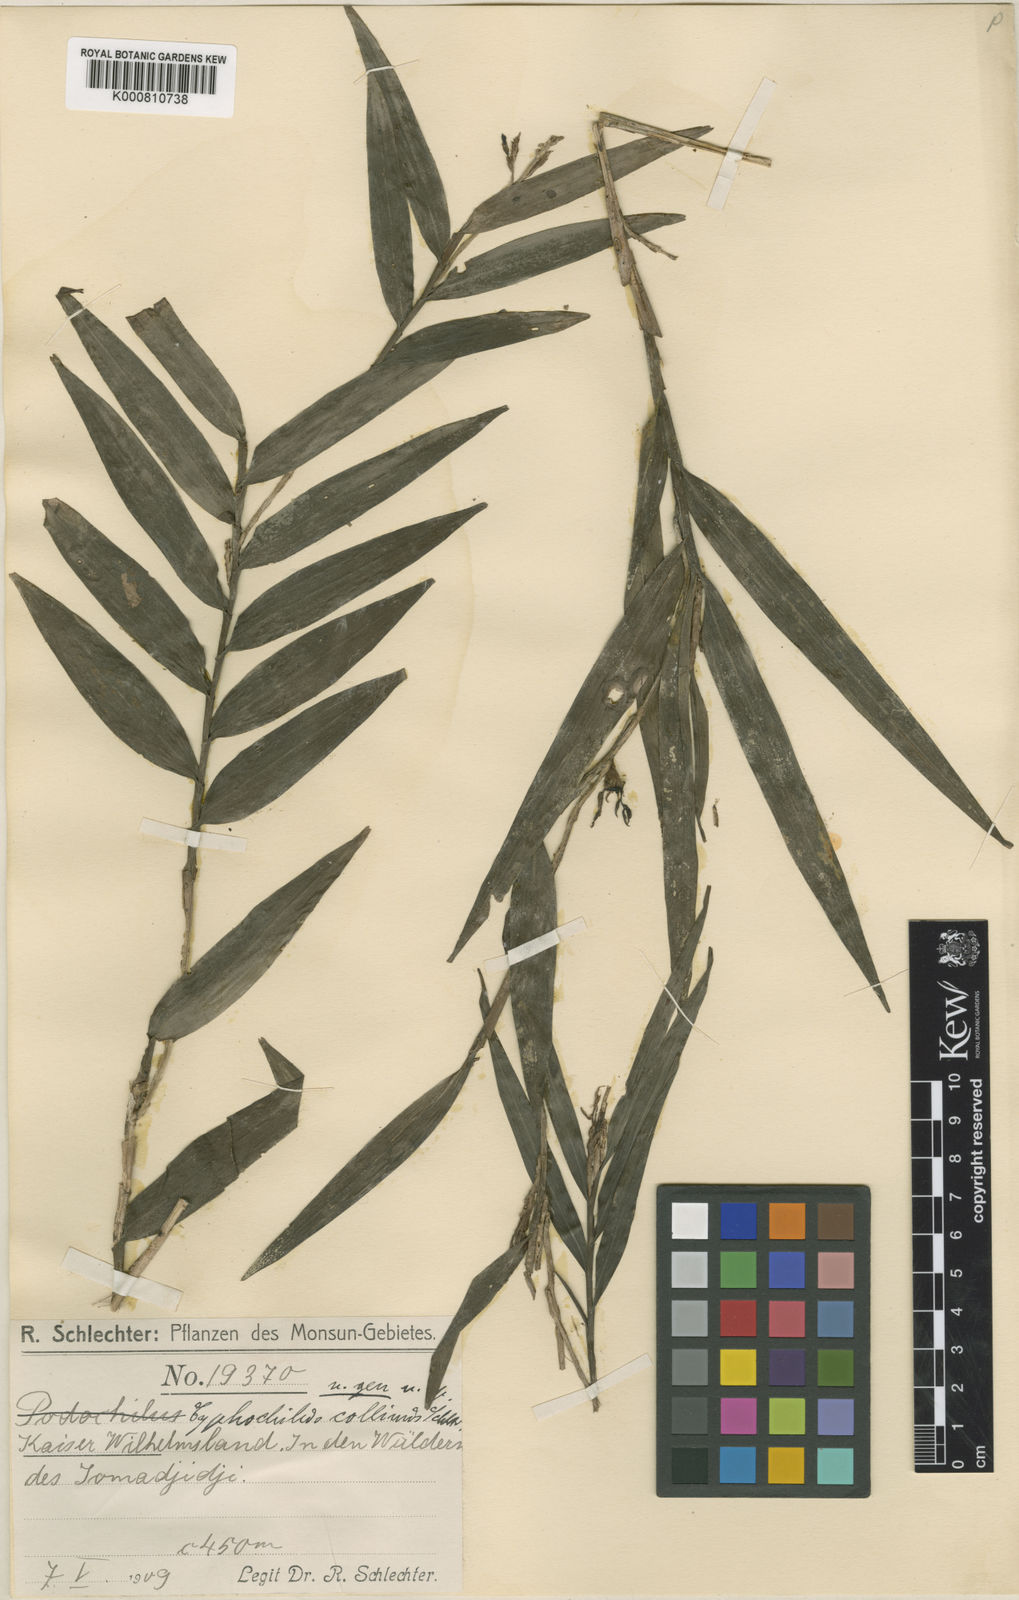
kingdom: Plantae
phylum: Tracheophyta
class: Liliopsida
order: Asparagales
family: Orchidaceae
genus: Appendicula
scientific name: Appendicula collina
